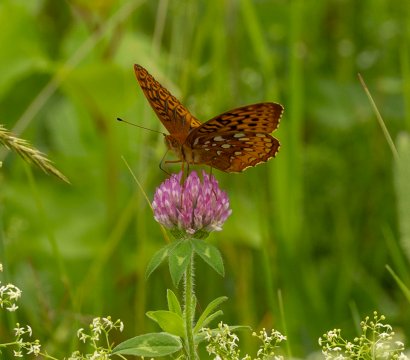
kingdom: Animalia
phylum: Arthropoda
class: Insecta
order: Lepidoptera
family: Nymphalidae
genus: Speyeria
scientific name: Speyeria cybele
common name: Great Spangled Fritillary
